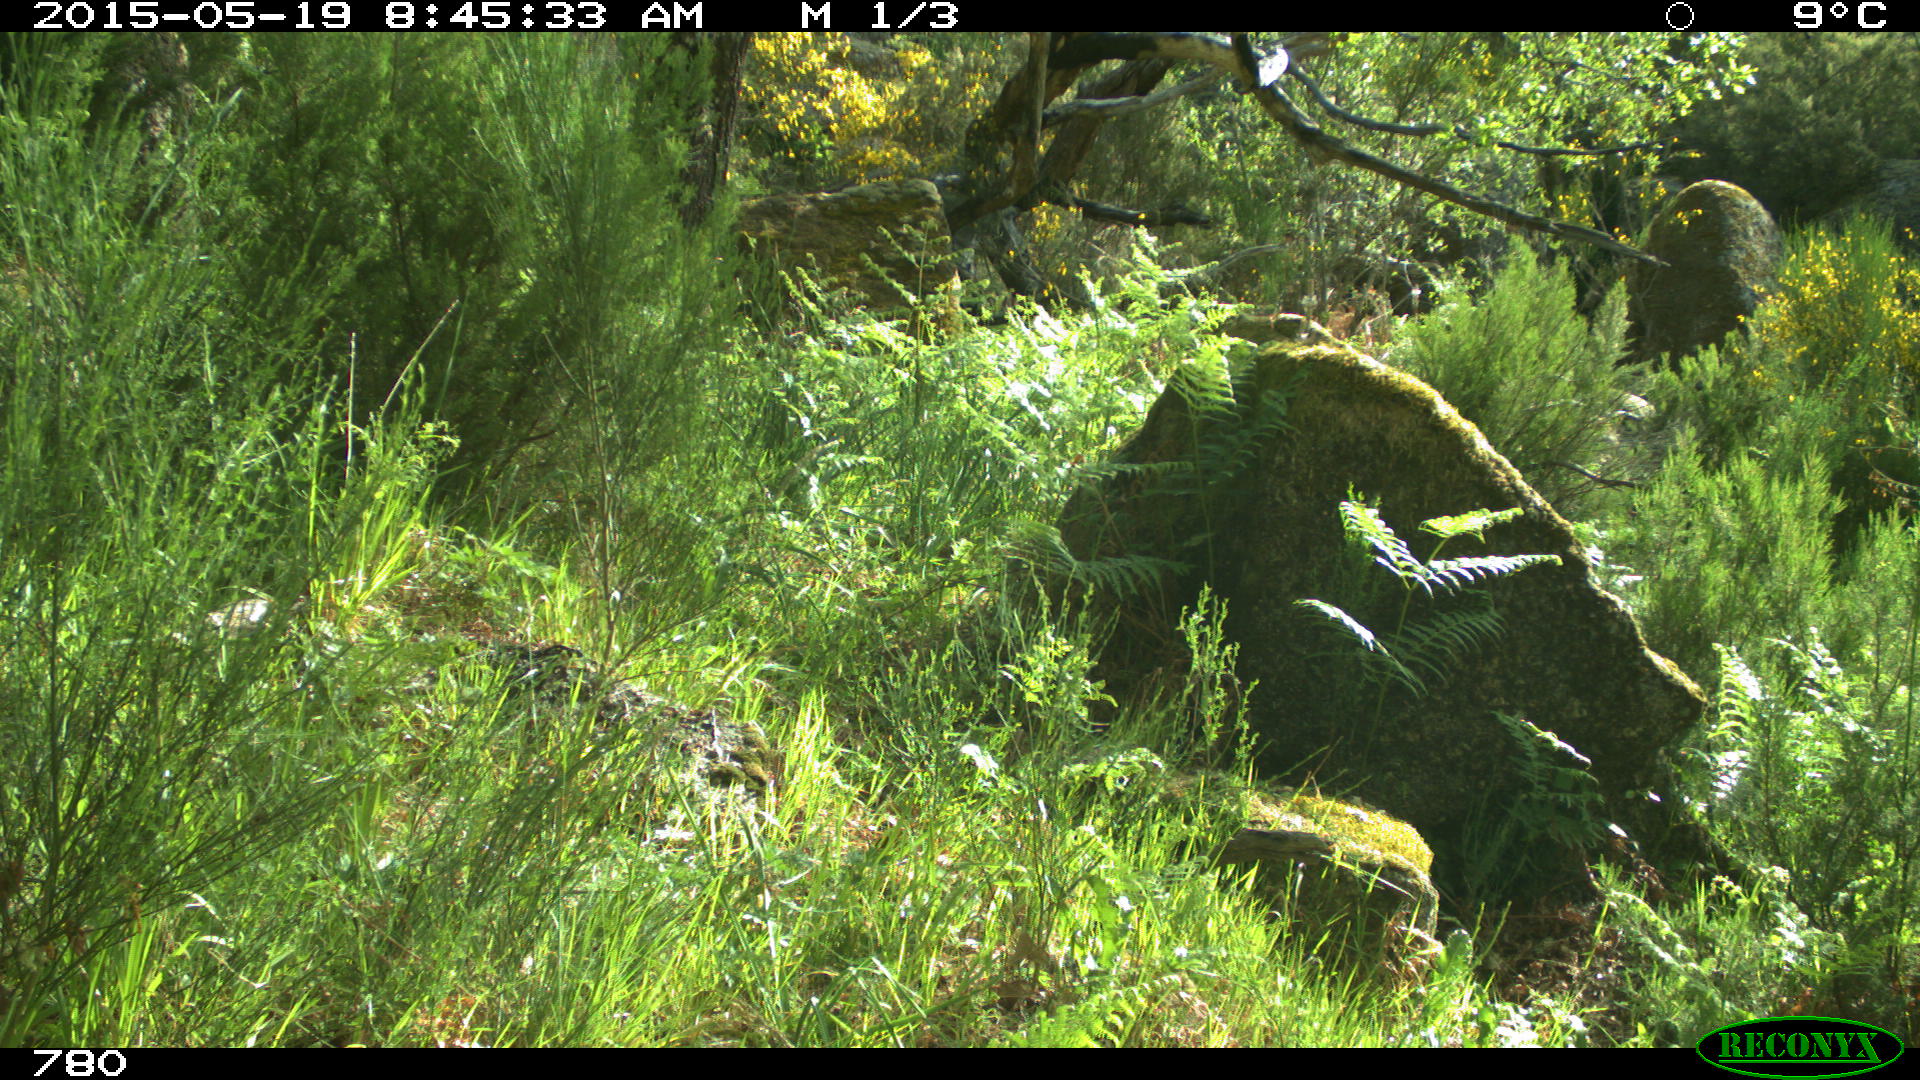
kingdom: Animalia
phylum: Chordata
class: Mammalia
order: Artiodactyla
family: Cervidae
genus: Capreolus
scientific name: Capreolus capreolus
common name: Western roe deer
